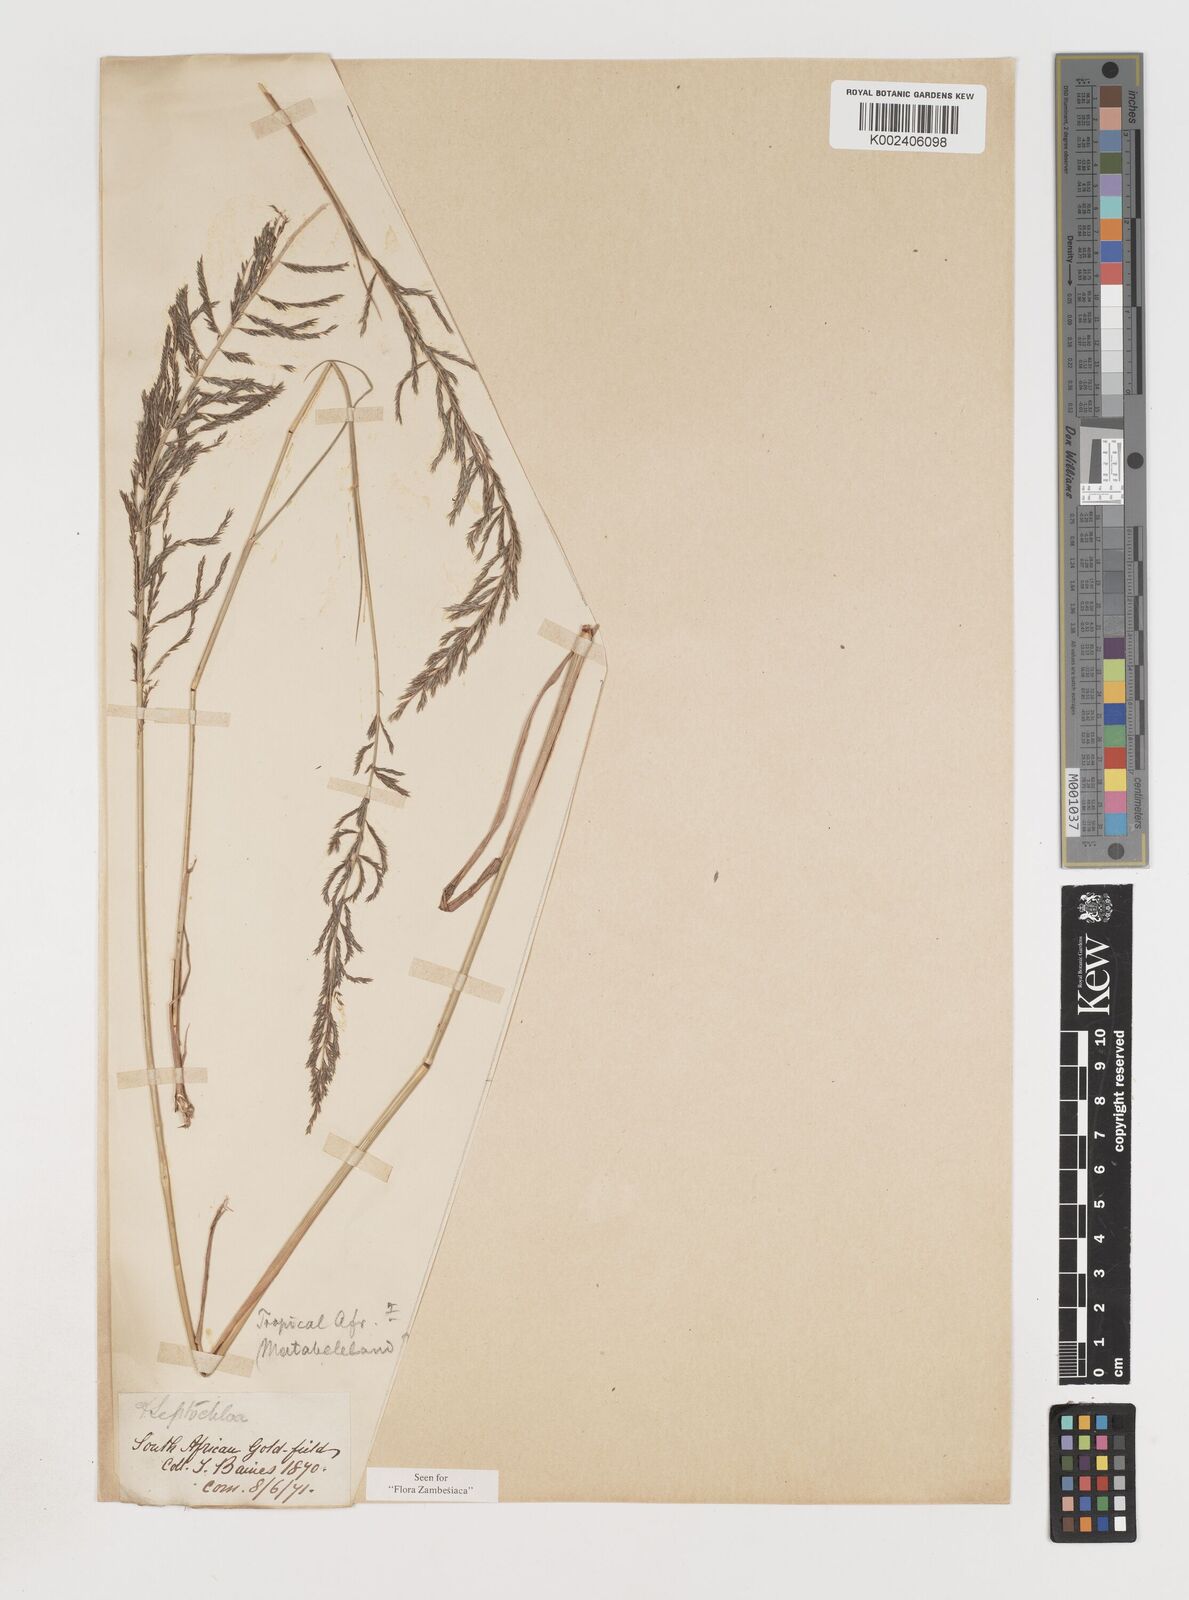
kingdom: Plantae
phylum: Tracheophyta
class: Liliopsida
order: Poales
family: Poaceae
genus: Pogonarthria
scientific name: Pogonarthria squarrosa
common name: Grass
